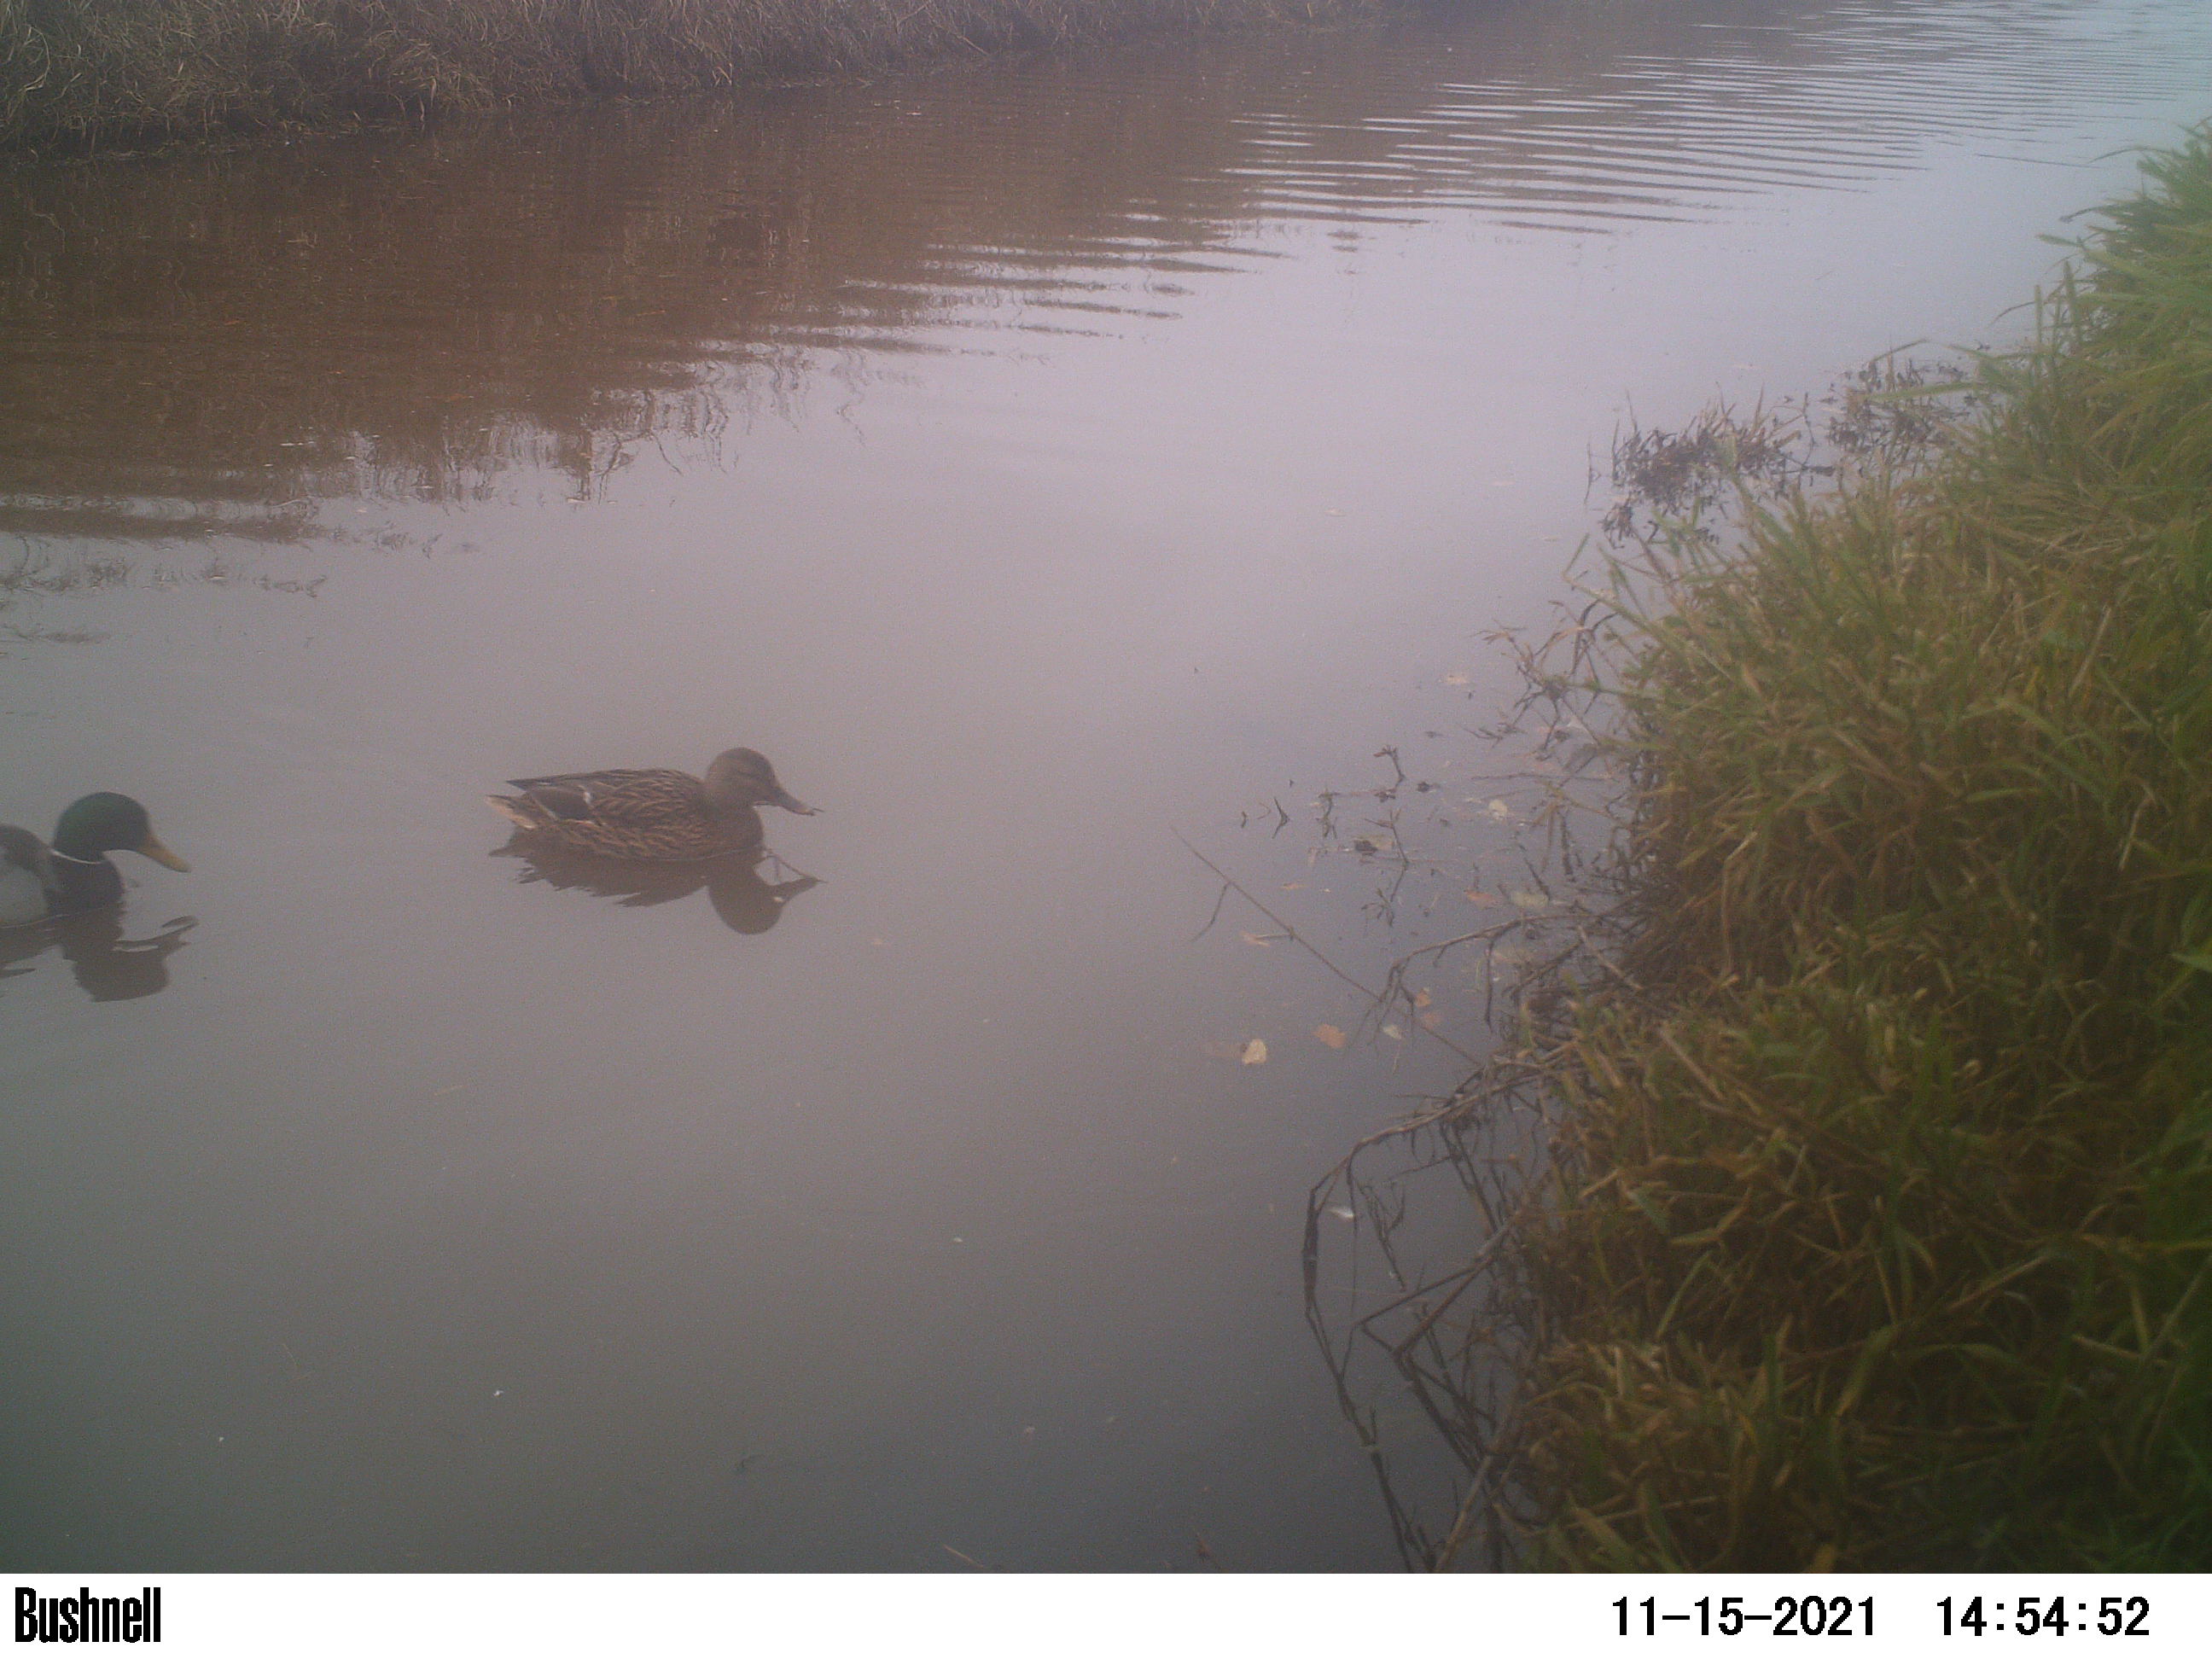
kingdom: Animalia
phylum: Chordata
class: Aves
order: Anseriformes
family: Anatidae
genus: Anas
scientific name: Anas
